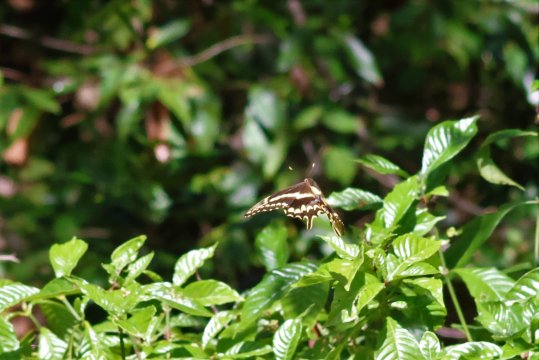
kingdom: Animalia
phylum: Arthropoda
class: Insecta
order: Lepidoptera
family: Papilionidae
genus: Heraclides
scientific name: Heraclides ponceana
